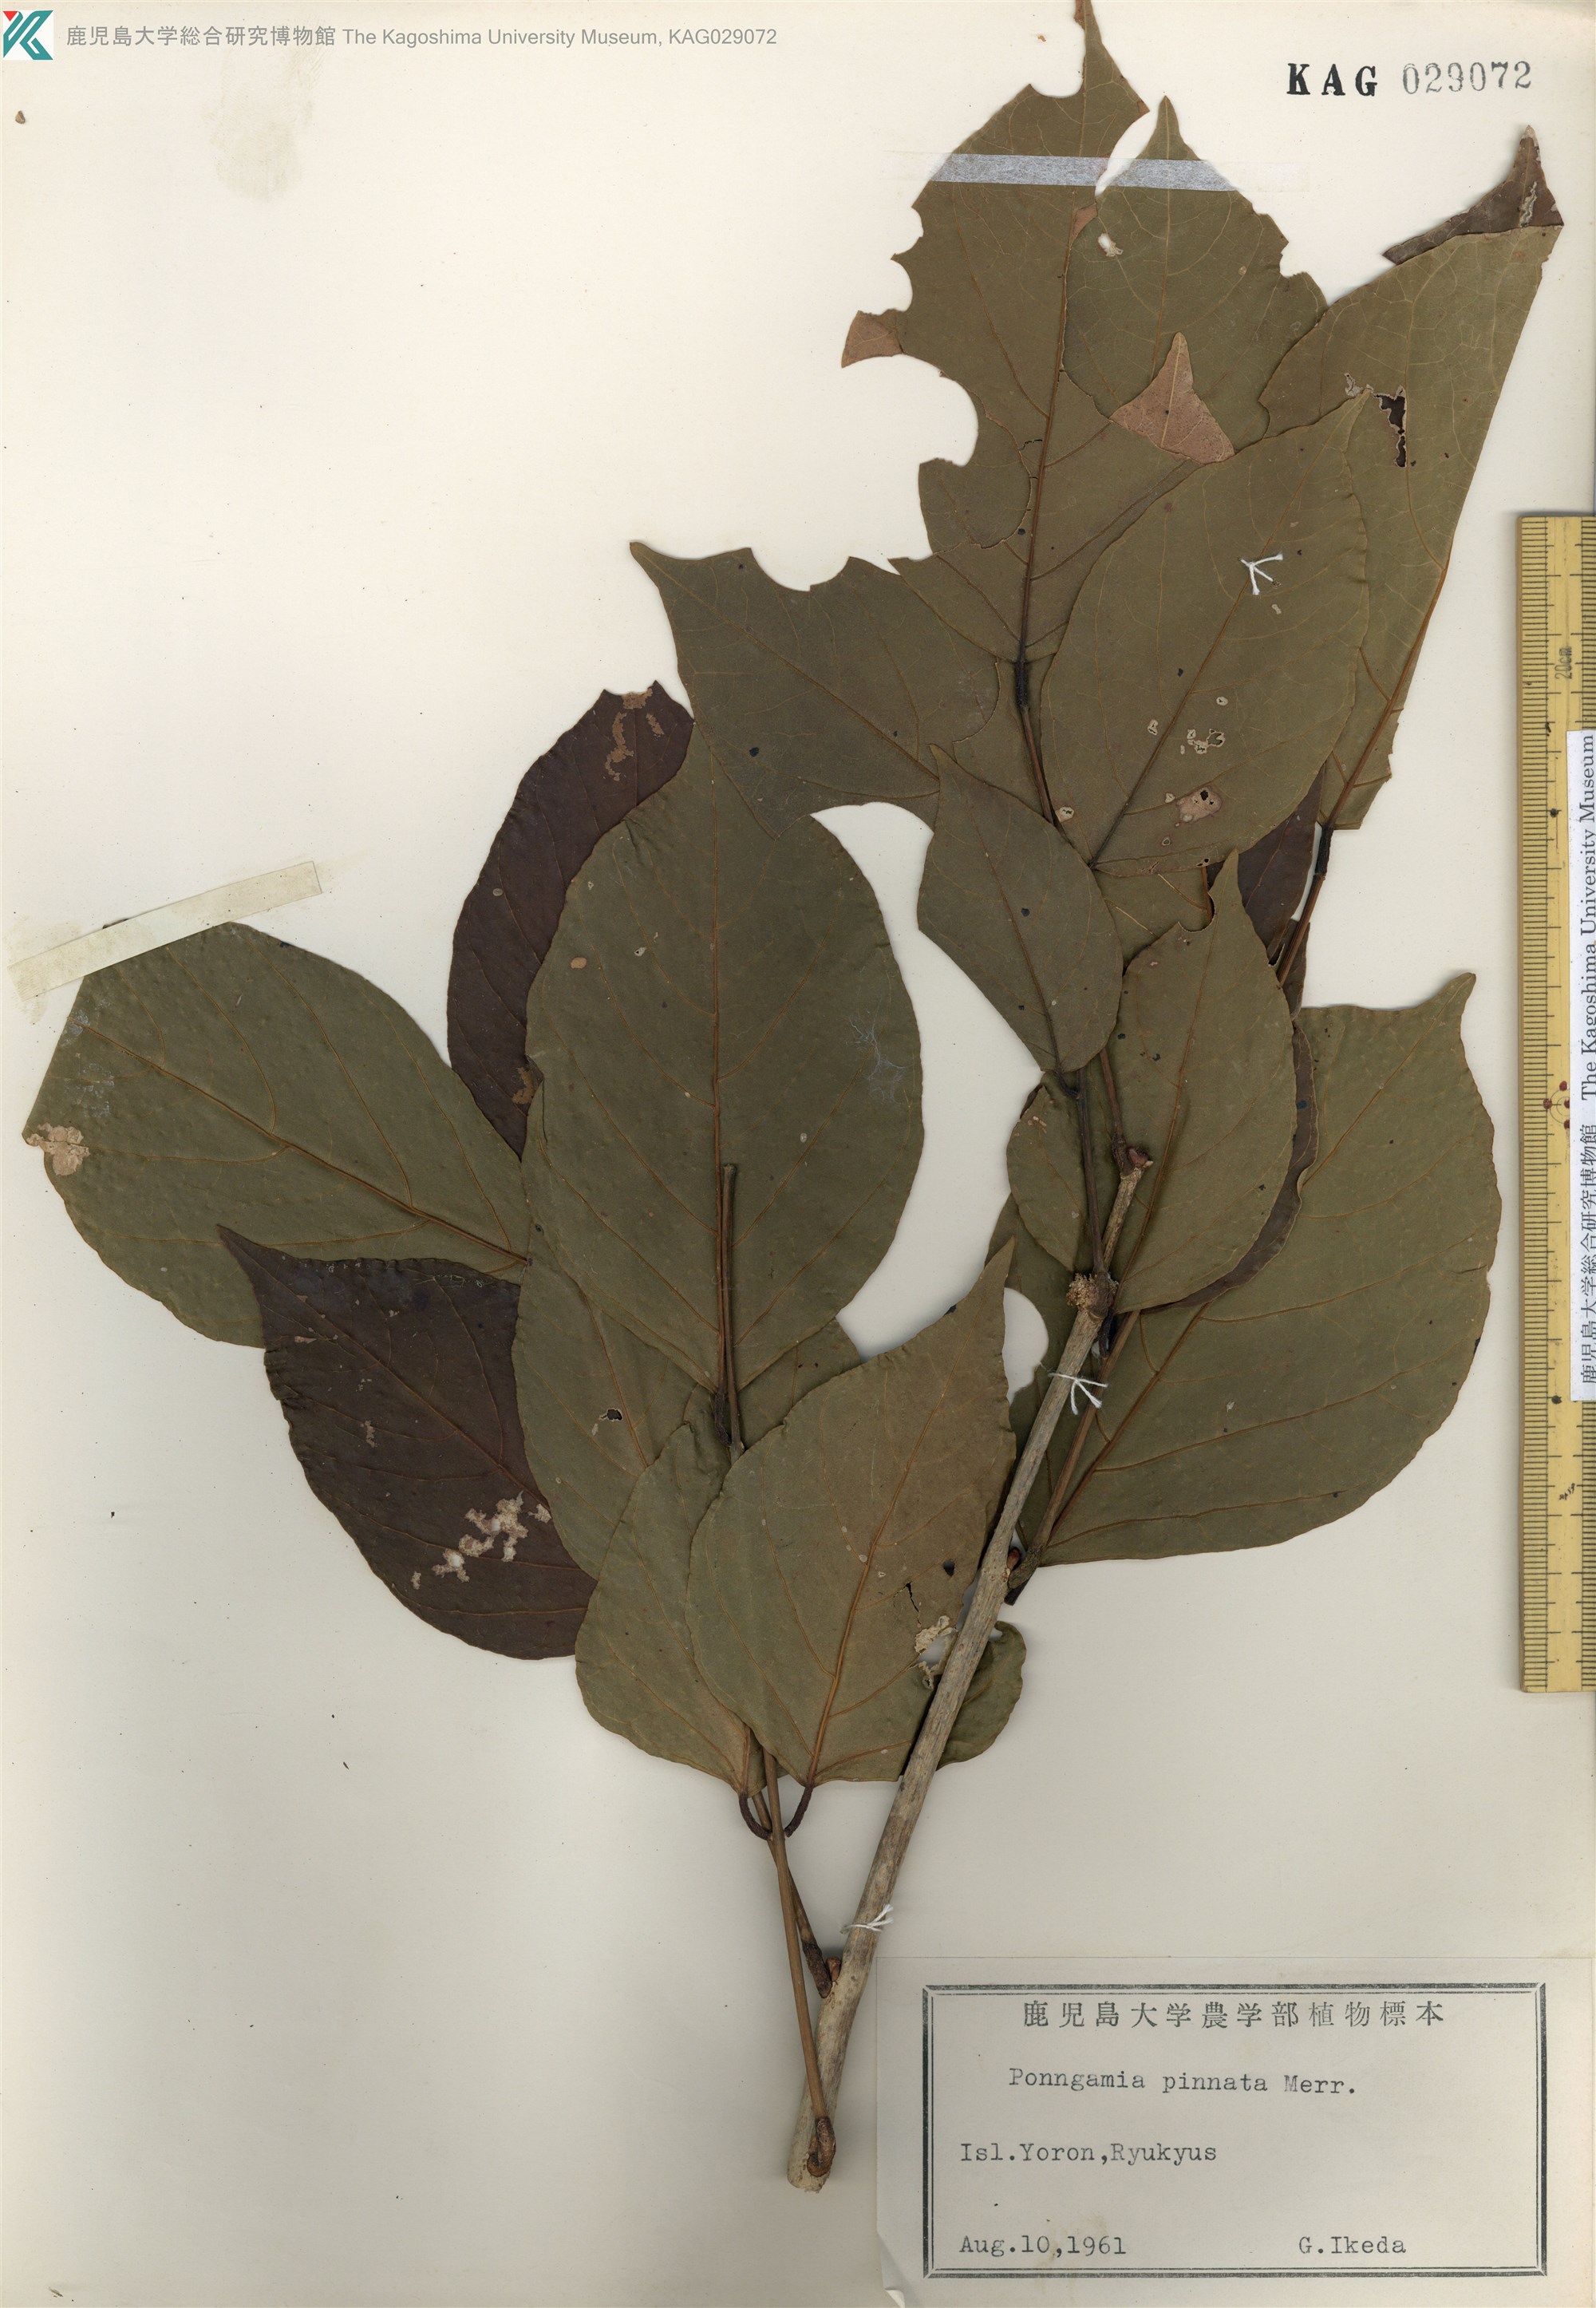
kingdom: Plantae
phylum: Tracheophyta
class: Magnoliopsida
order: Fabales
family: Fabaceae
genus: Pongamia
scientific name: Pongamia pinnata
